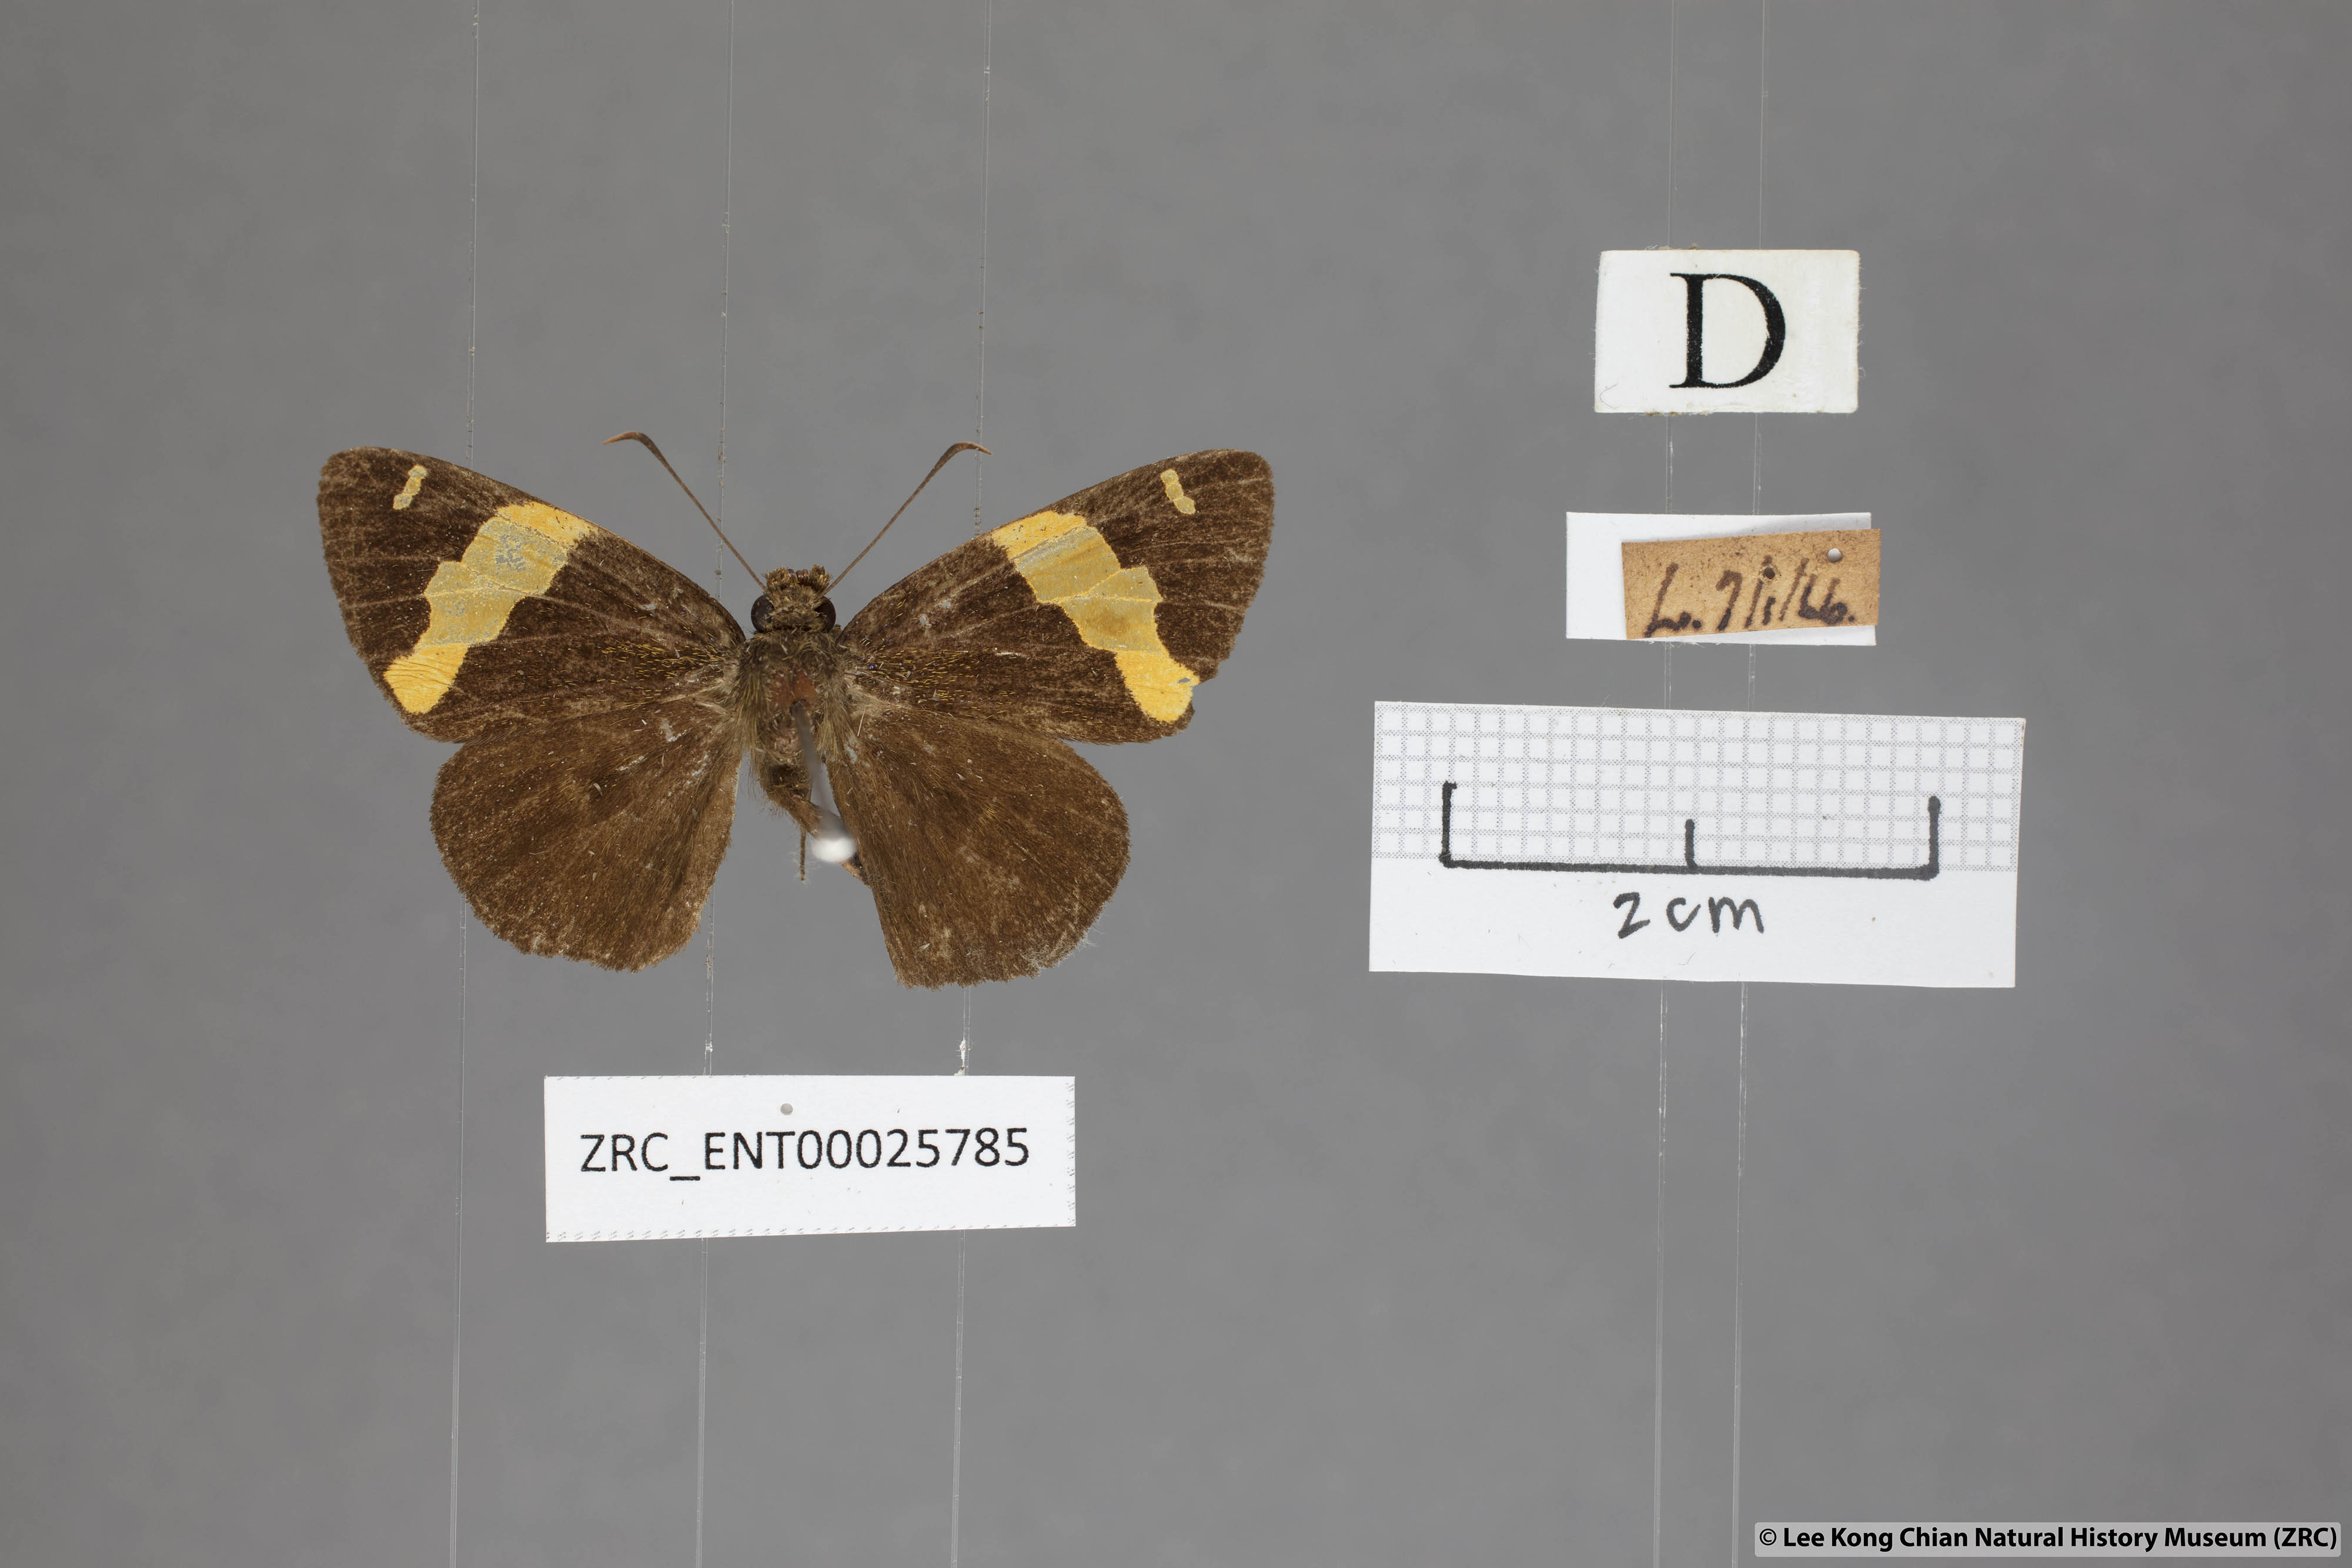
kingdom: Animalia
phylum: Arthropoda
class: Insecta
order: Lepidoptera
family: Hesperiidae
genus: Celaenorrhinus
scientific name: Celaenorrhinus aurivittata
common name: Dark yellow-banded flat
